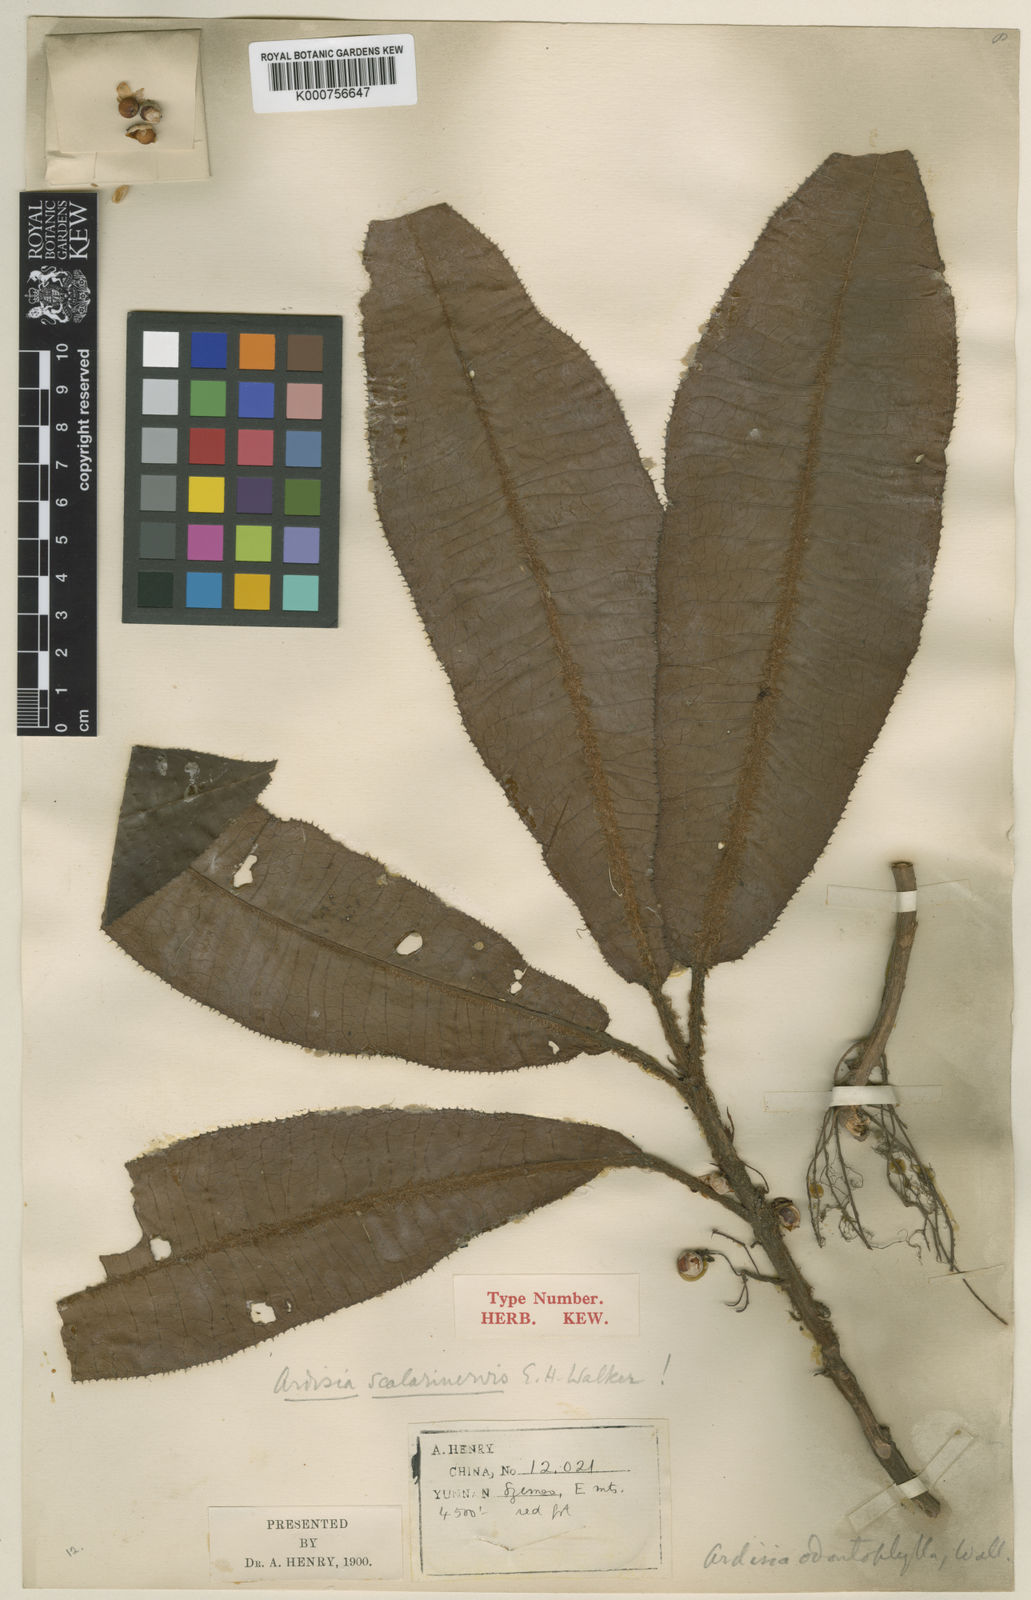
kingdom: Plantae
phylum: Tracheophyta
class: Magnoliopsida
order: Ericales
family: Primulaceae
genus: Ardisia
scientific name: Ardisia scalarinervis
